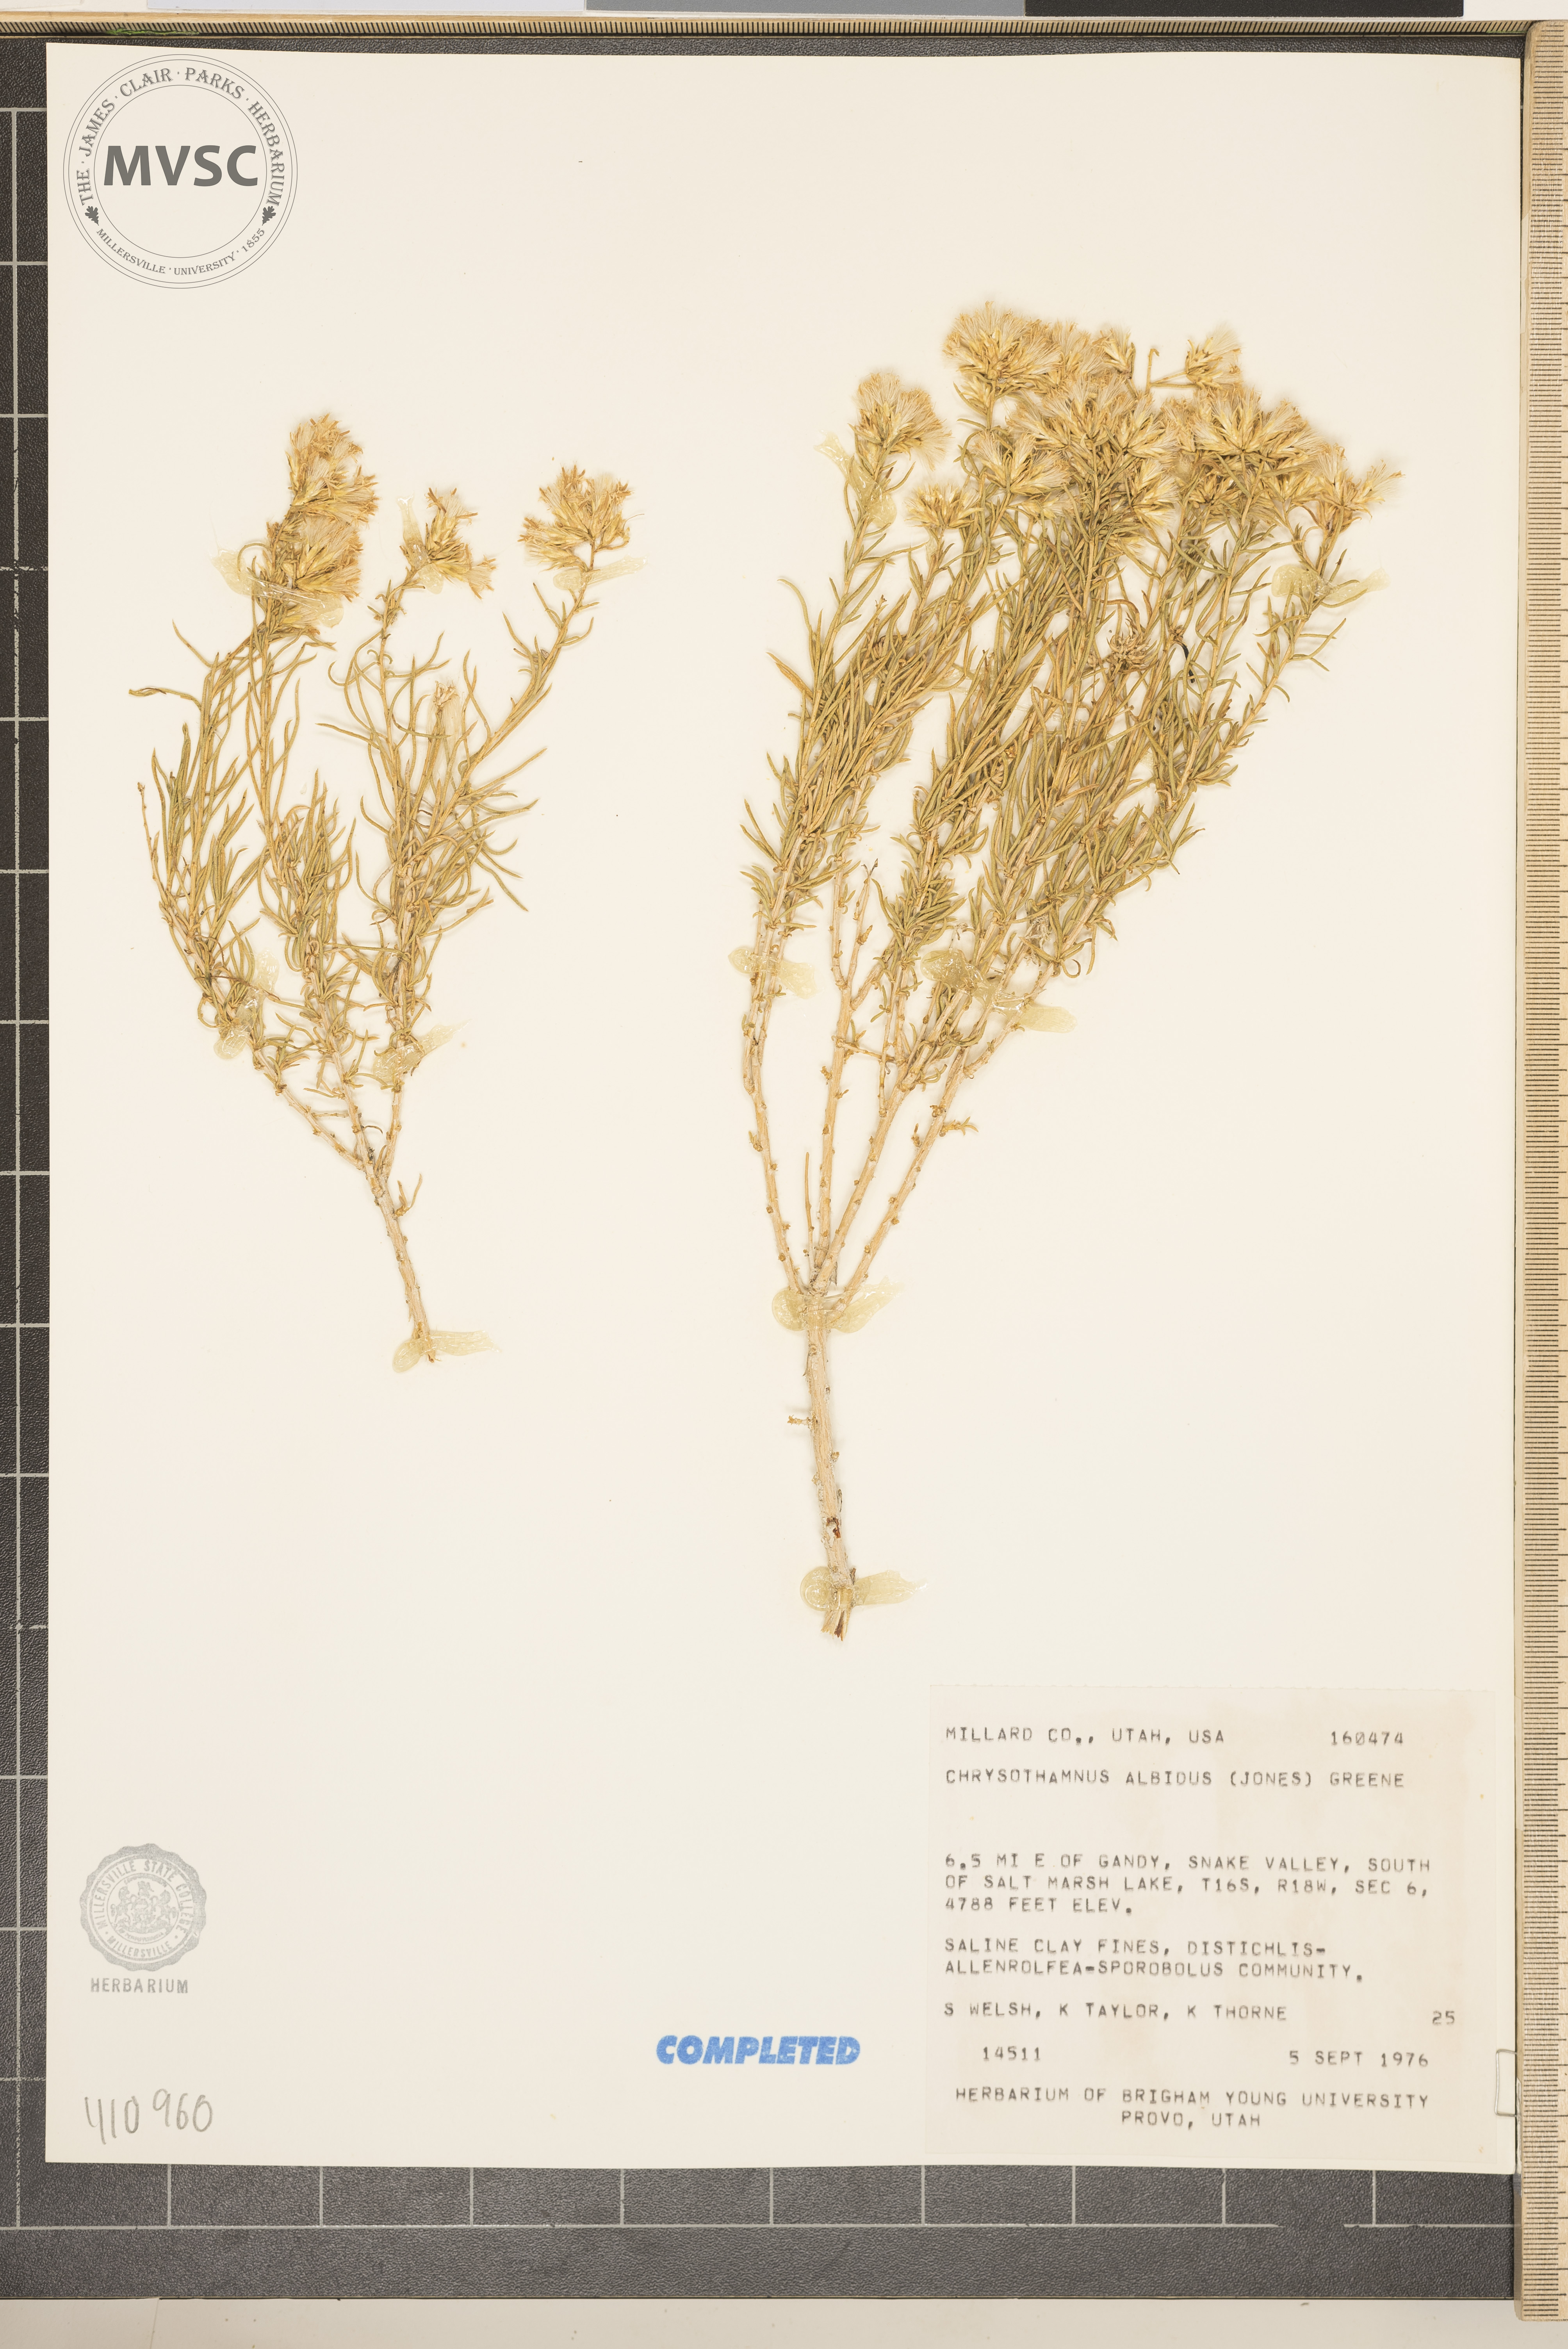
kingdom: Plantae
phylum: Tracheophyta
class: Magnoliopsida
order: Asterales
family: Asteraceae
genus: Ericameria
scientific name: Ericameria albida
